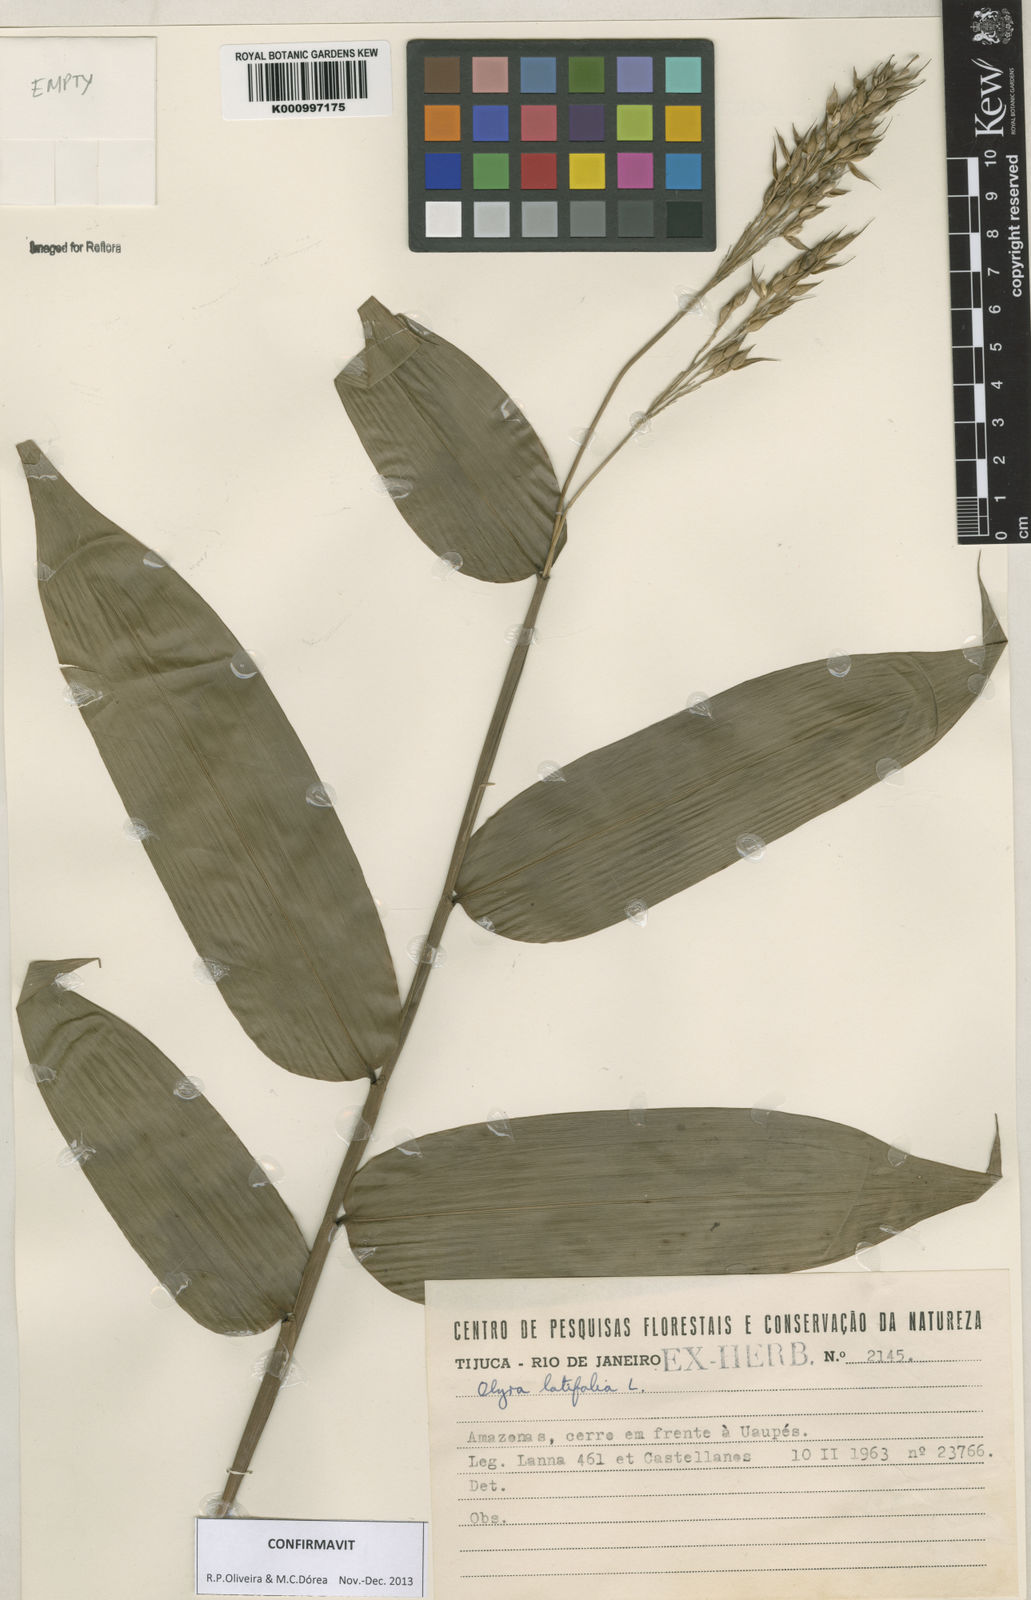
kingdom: Plantae
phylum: Tracheophyta
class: Liliopsida
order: Poales
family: Poaceae
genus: Olyra
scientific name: Olyra latifolia
